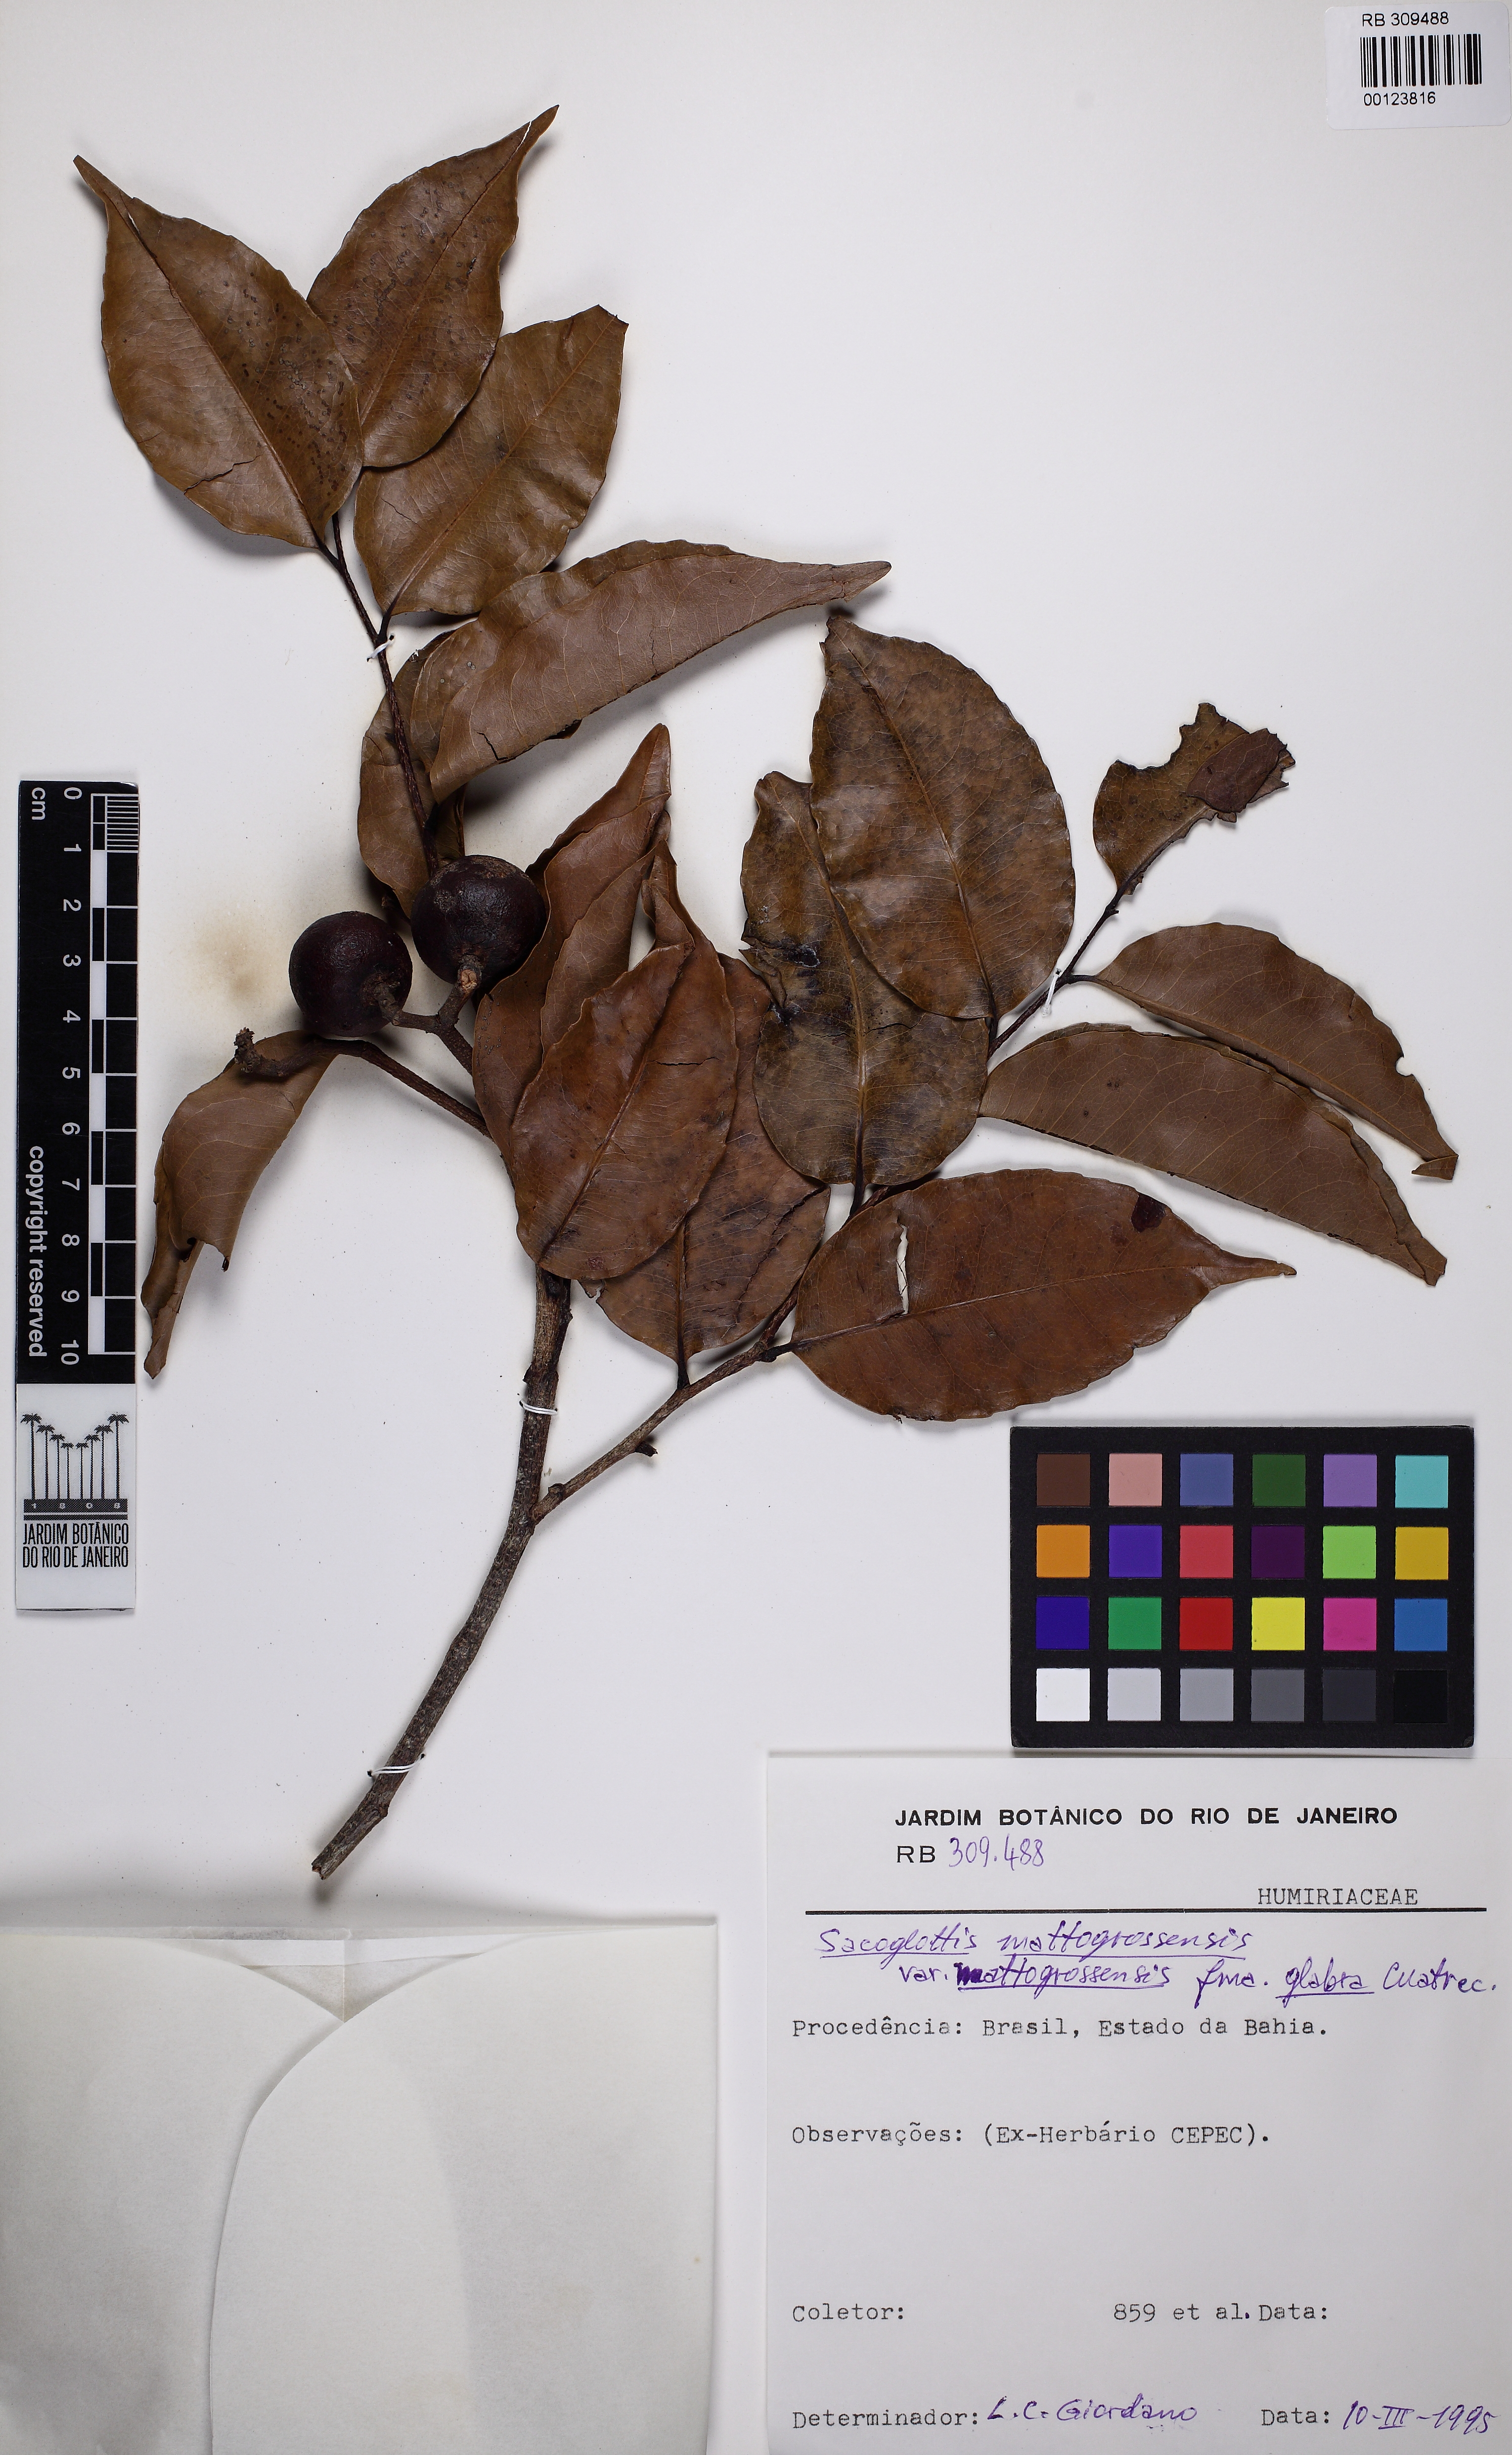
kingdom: Plantae
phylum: Tracheophyta
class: Magnoliopsida
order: Malpighiales
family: Humiriaceae
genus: Sacoglottis
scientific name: Sacoglottis mattogrossensis
